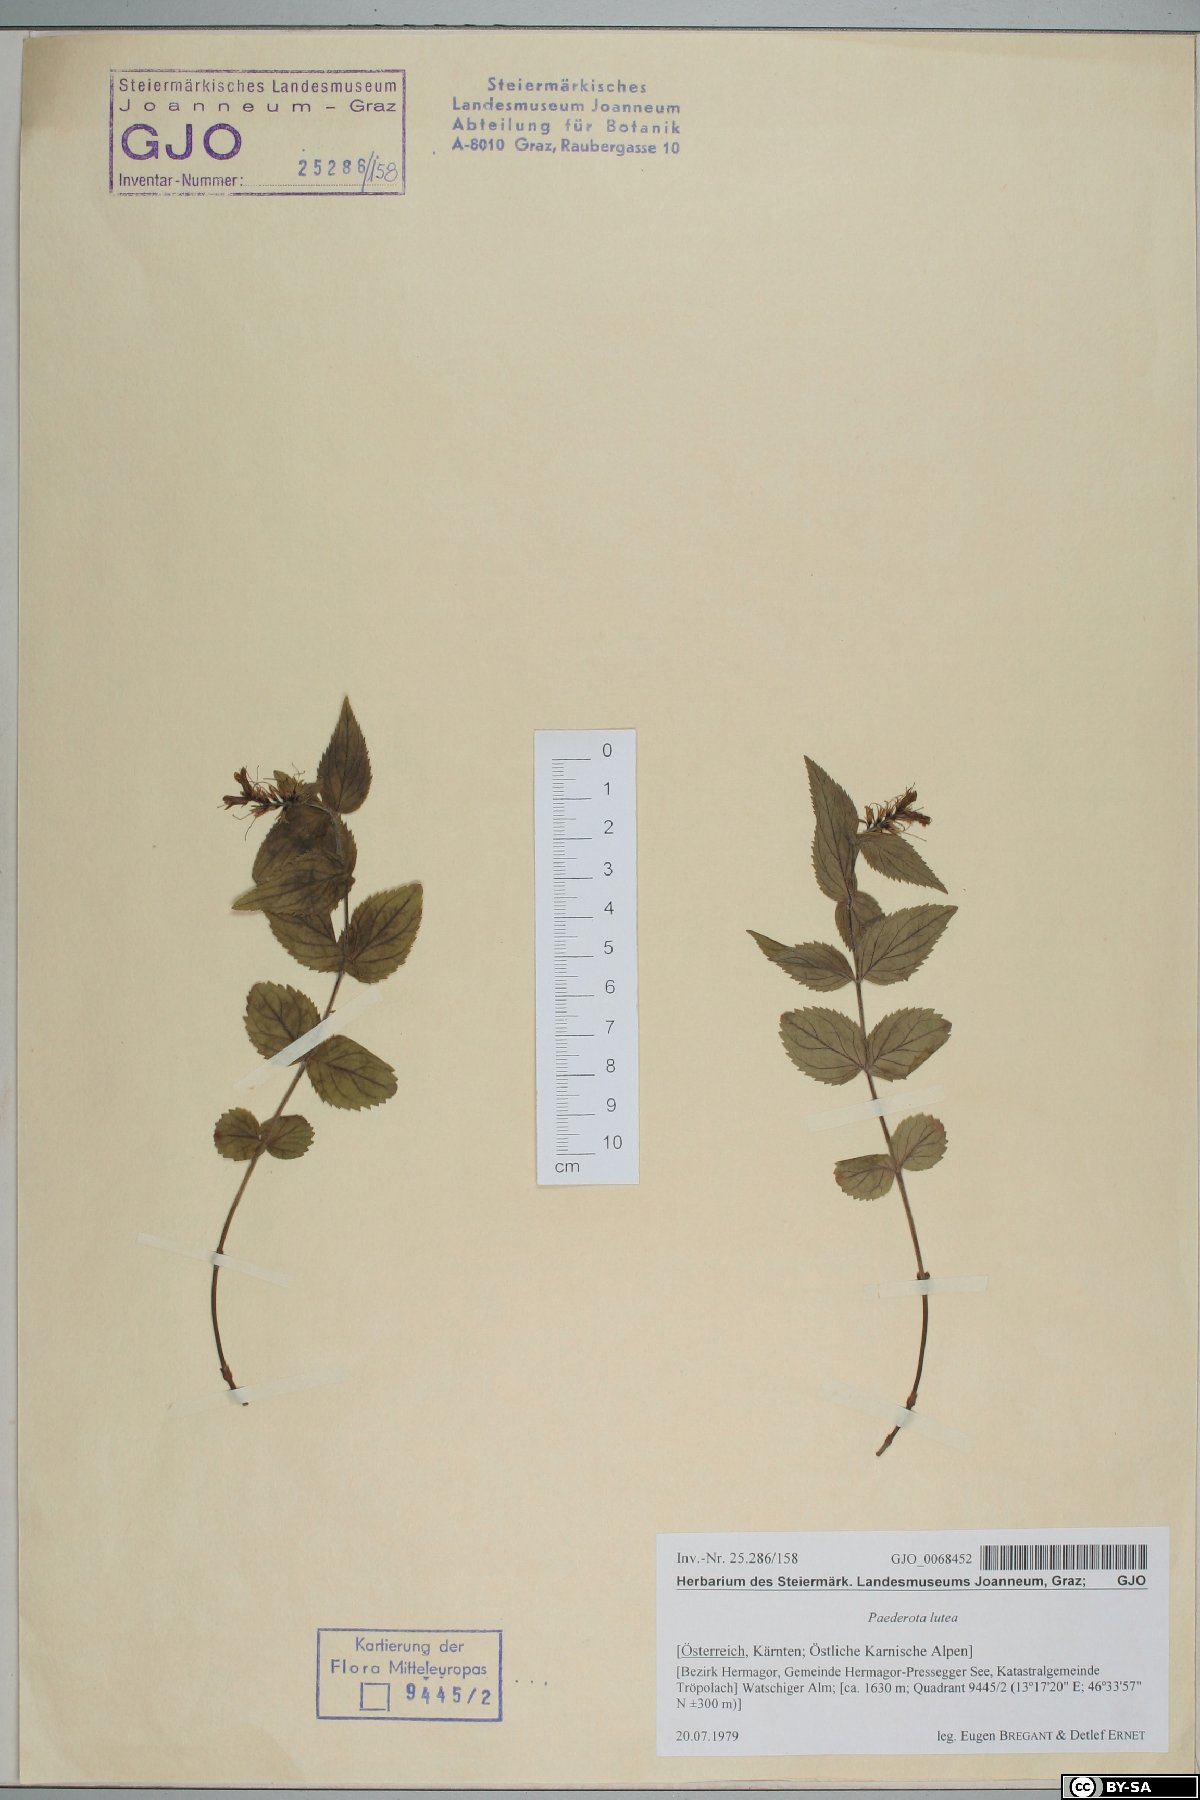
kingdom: Plantae
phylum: Tracheophyta
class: Magnoliopsida
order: Lamiales
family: Plantaginaceae
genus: Paederota
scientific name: Paederota lutea
